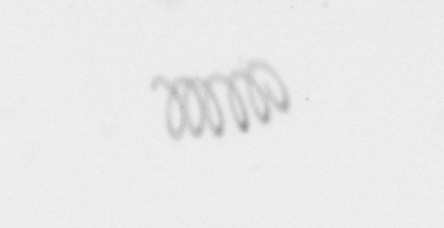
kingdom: Chromista
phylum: Ochrophyta
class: Bacillariophyceae
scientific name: Bacillariophyceae
